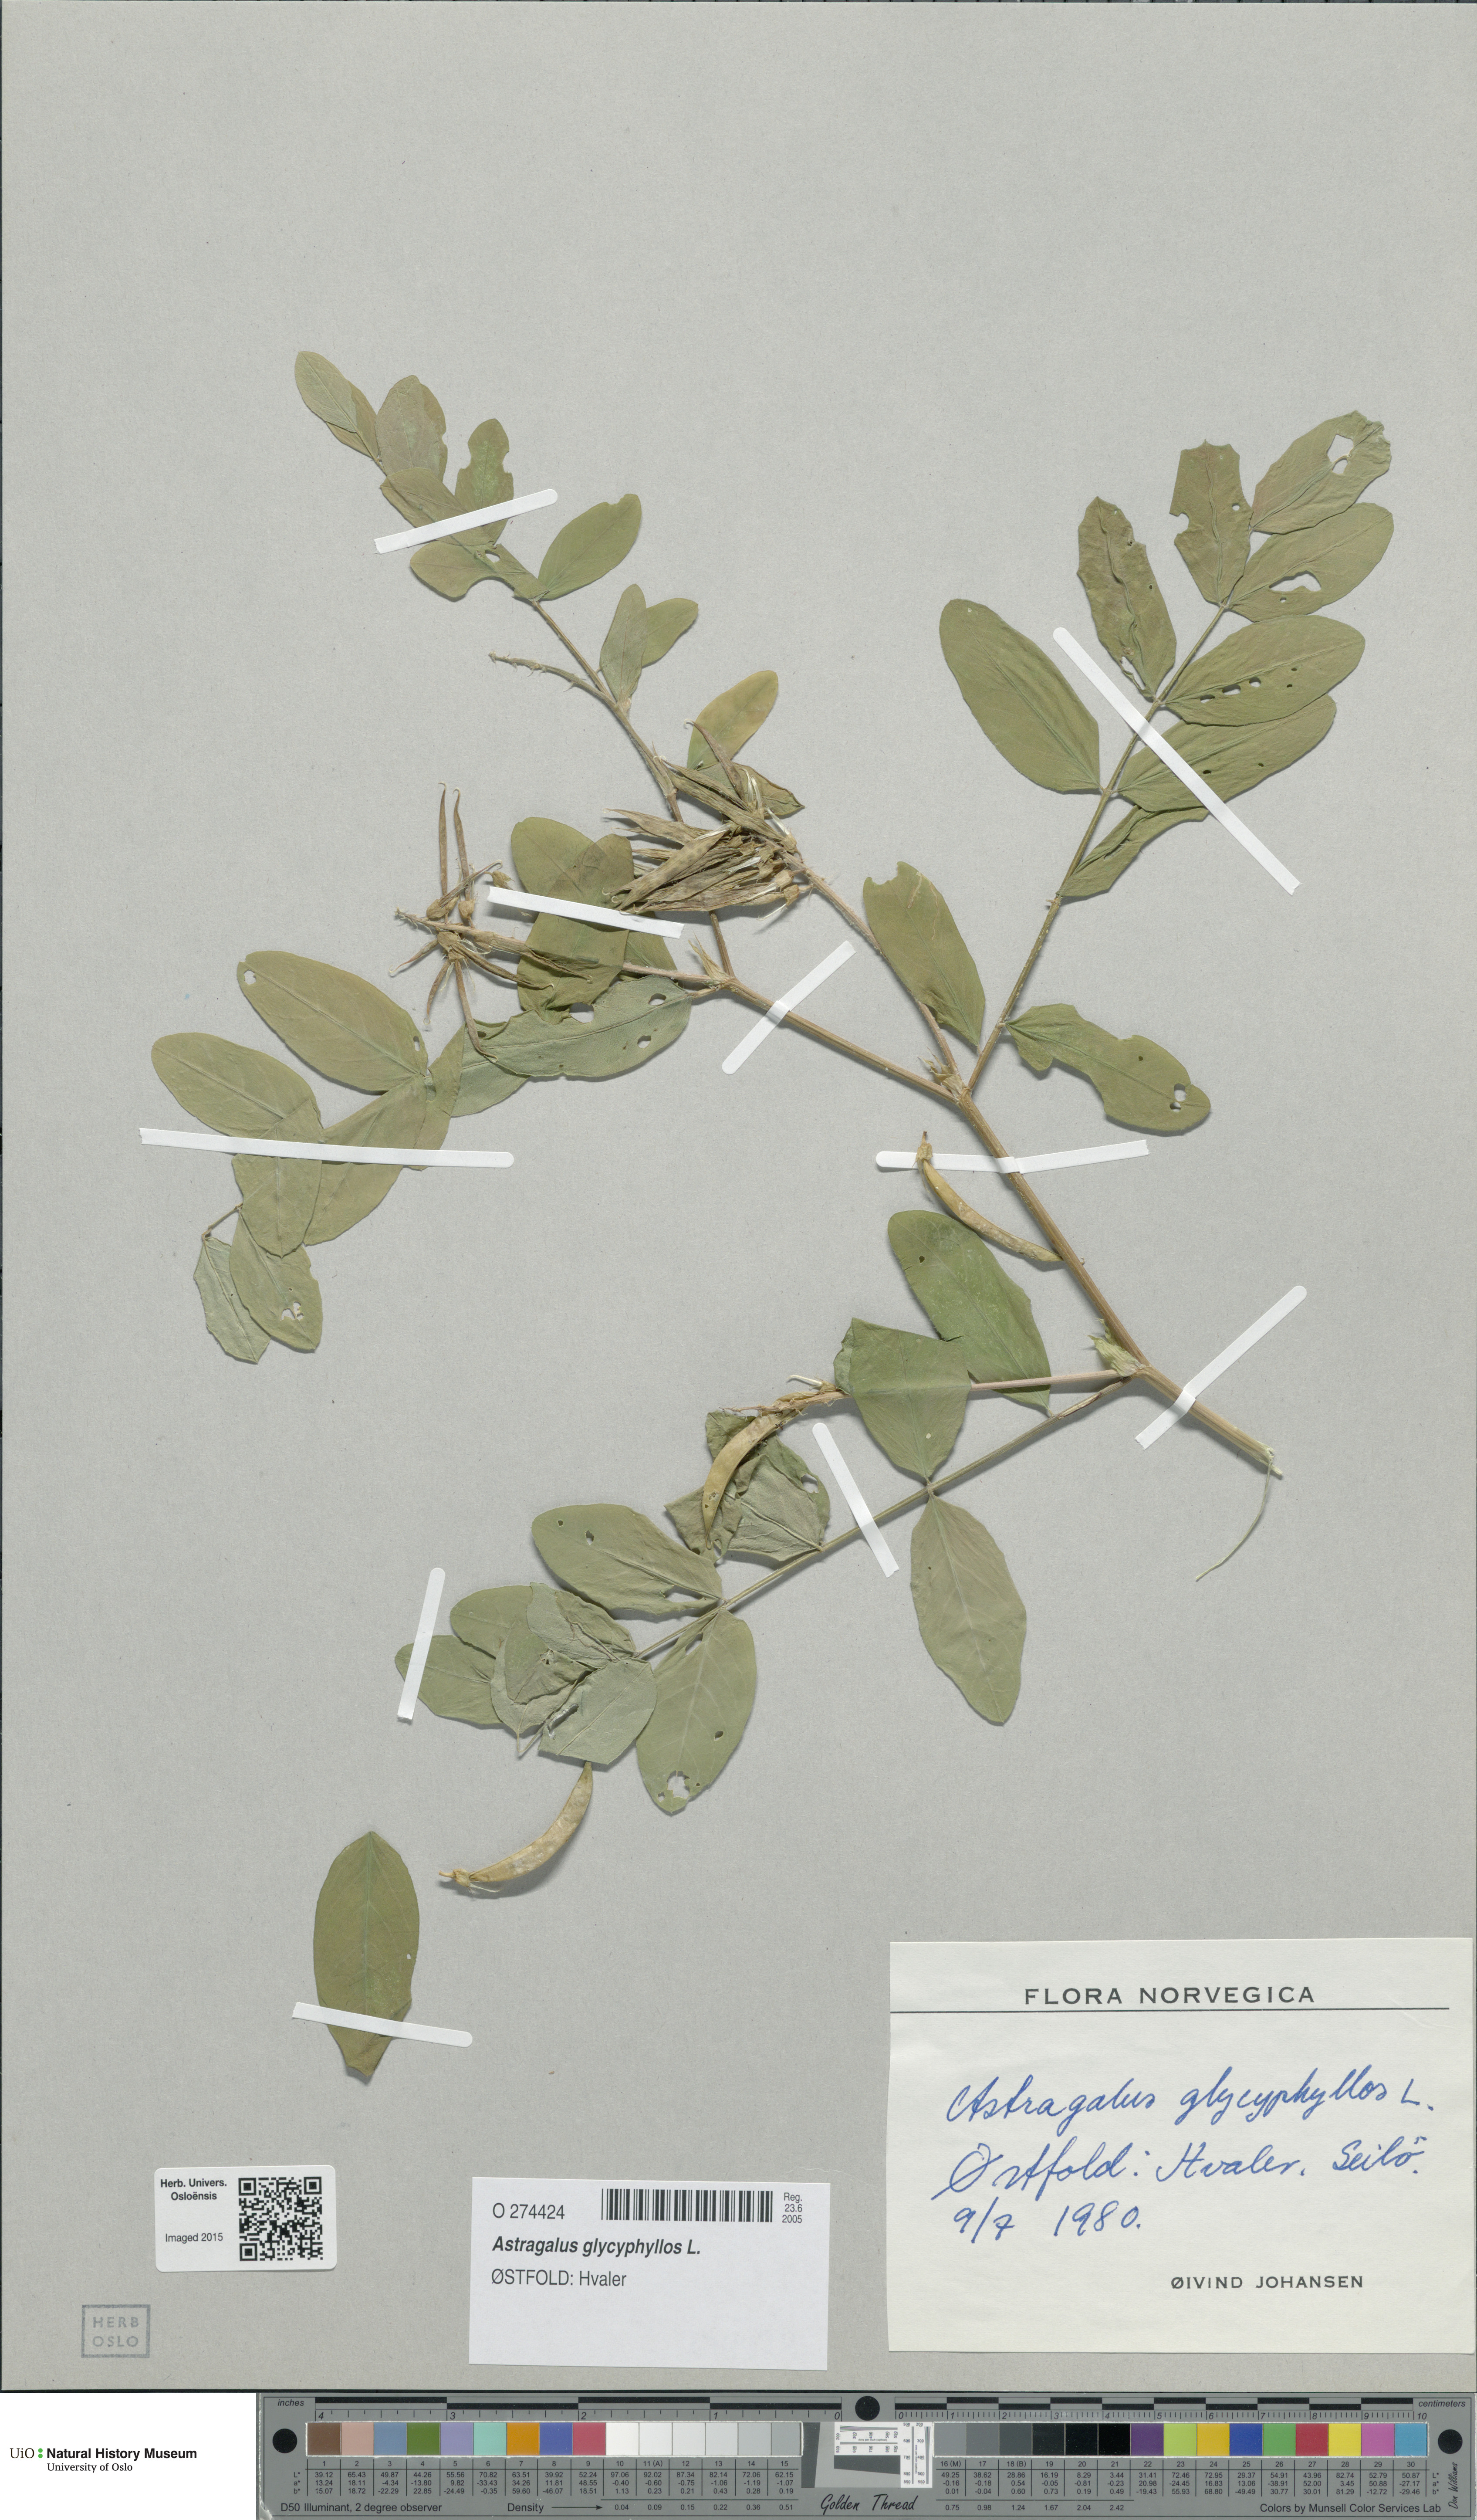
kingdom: Plantae
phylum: Tracheophyta
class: Magnoliopsida
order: Fabales
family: Fabaceae
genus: Astragalus
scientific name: Astragalus glycyphyllos
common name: Wild liquorice
